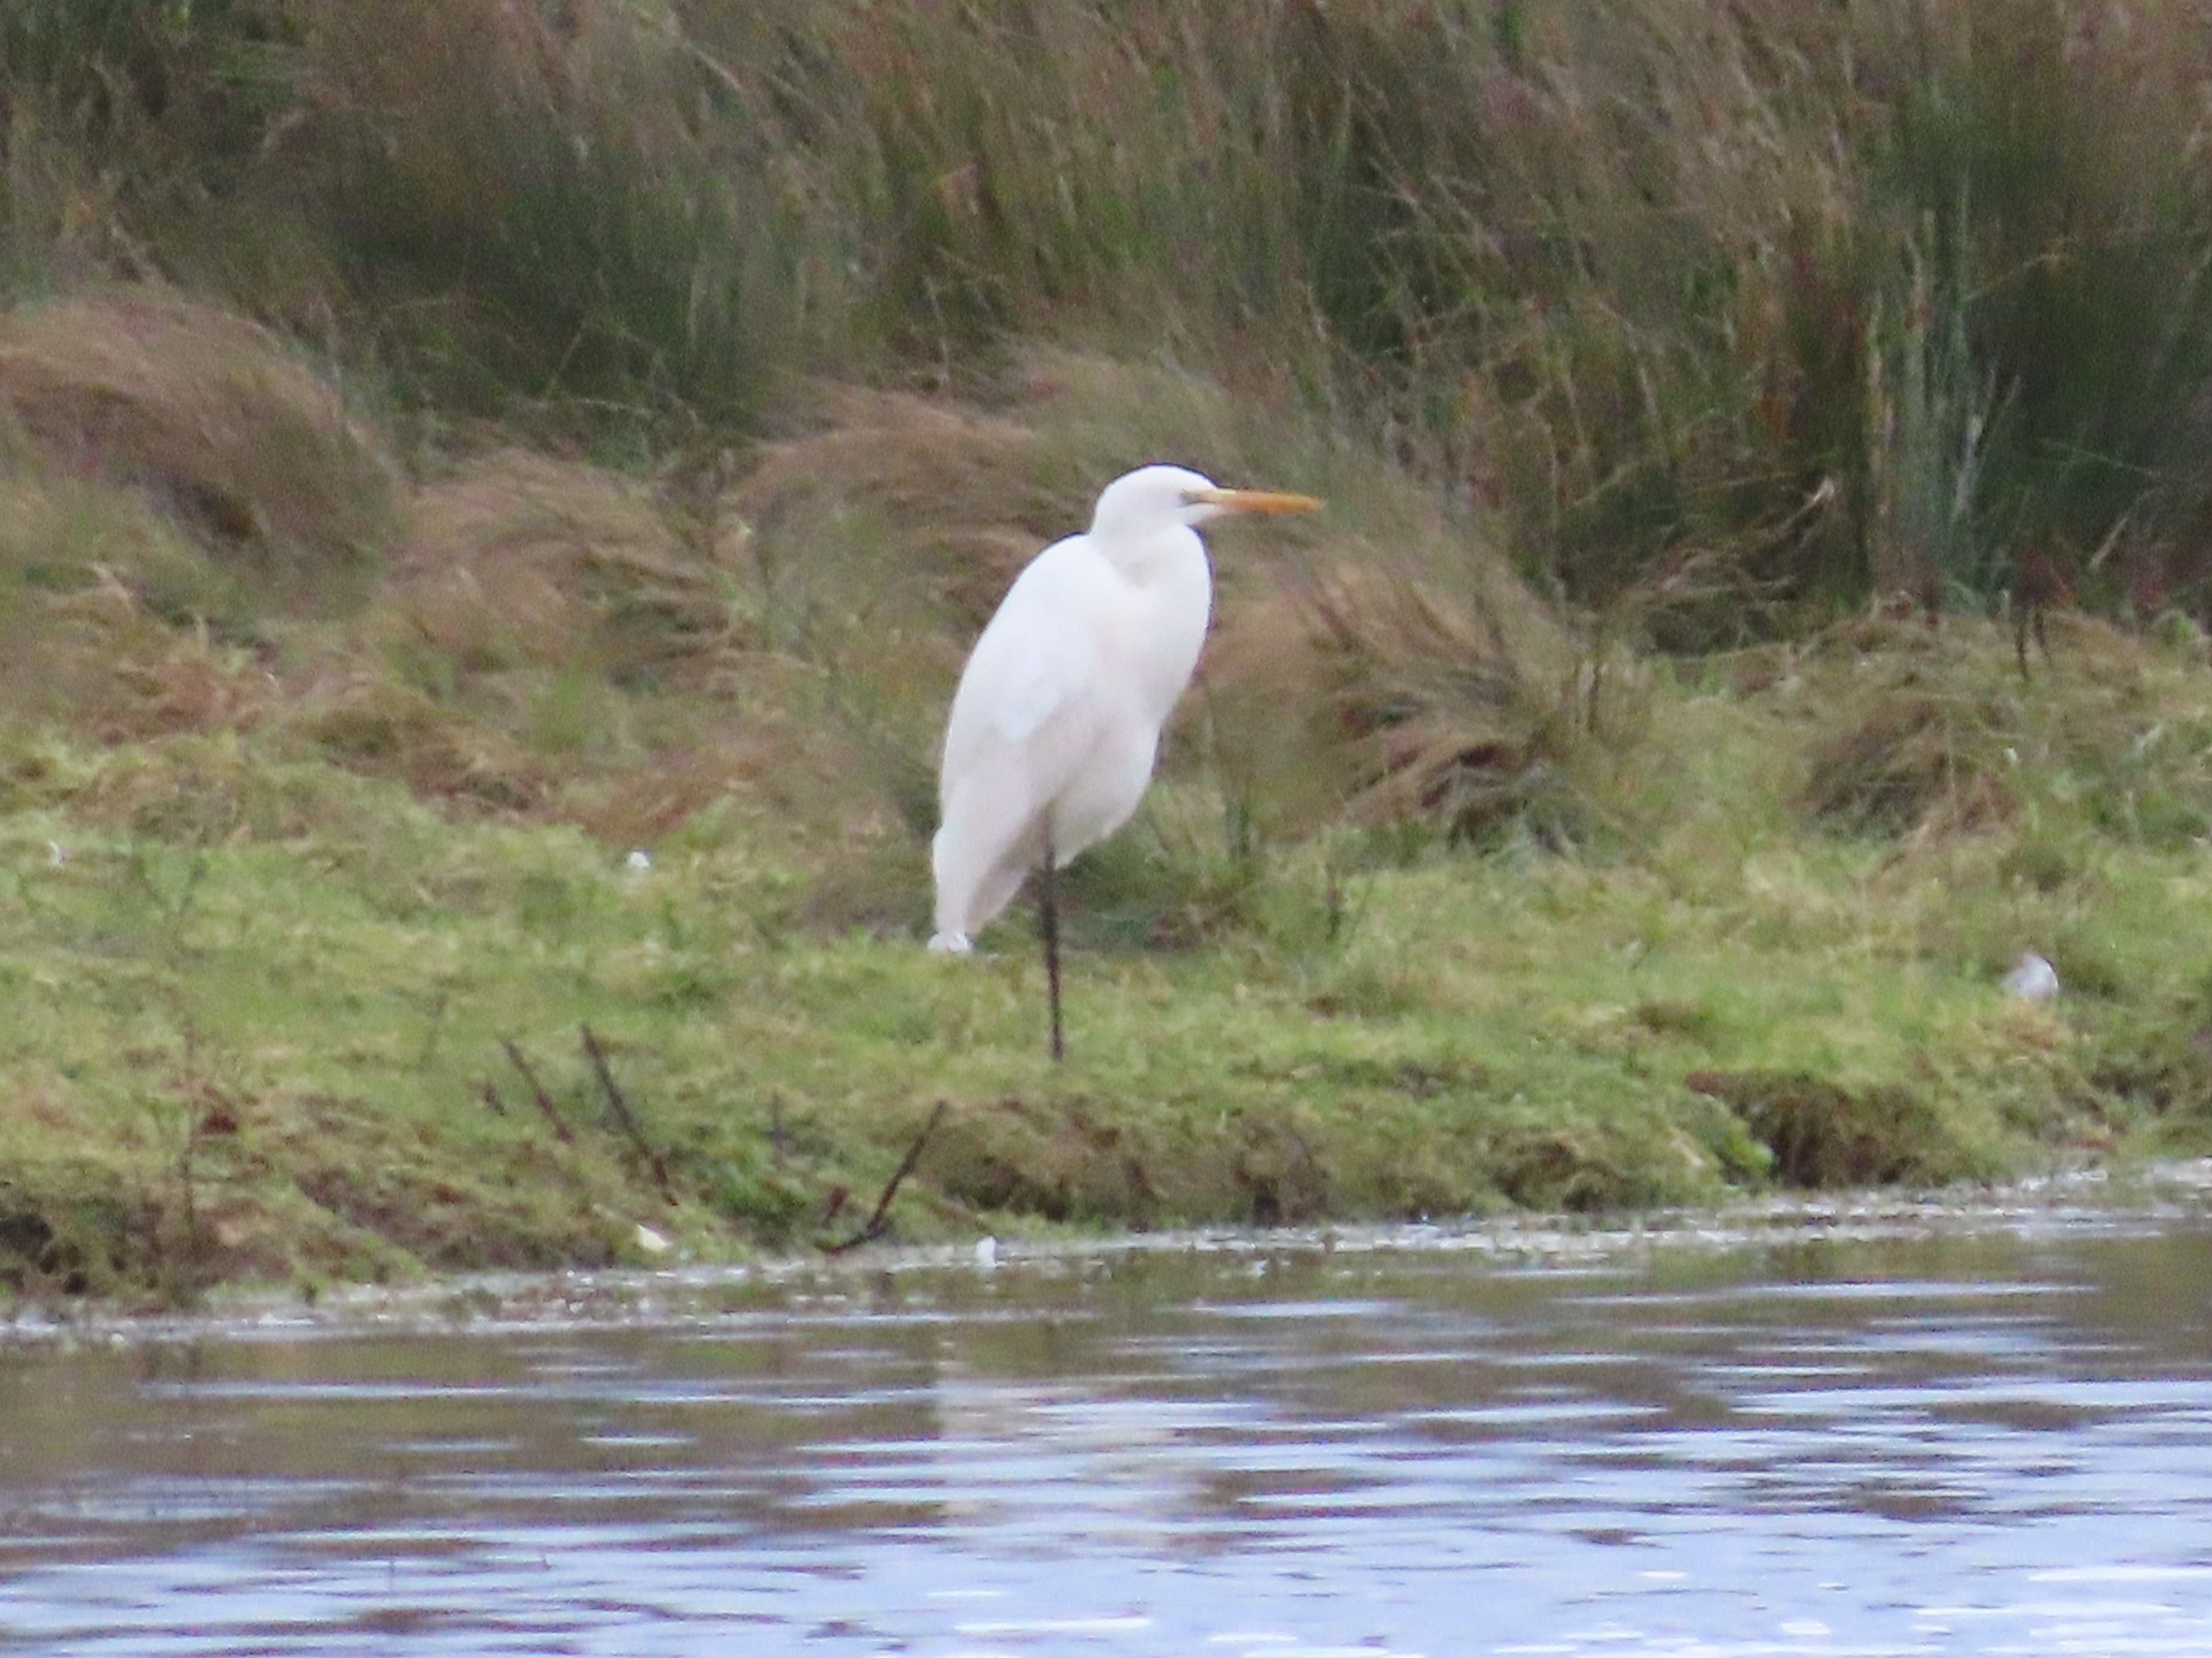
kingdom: Animalia
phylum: Chordata
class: Aves
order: Pelecaniformes
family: Ardeidae
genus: Ardea
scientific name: Ardea alba
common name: Sølvhejre
